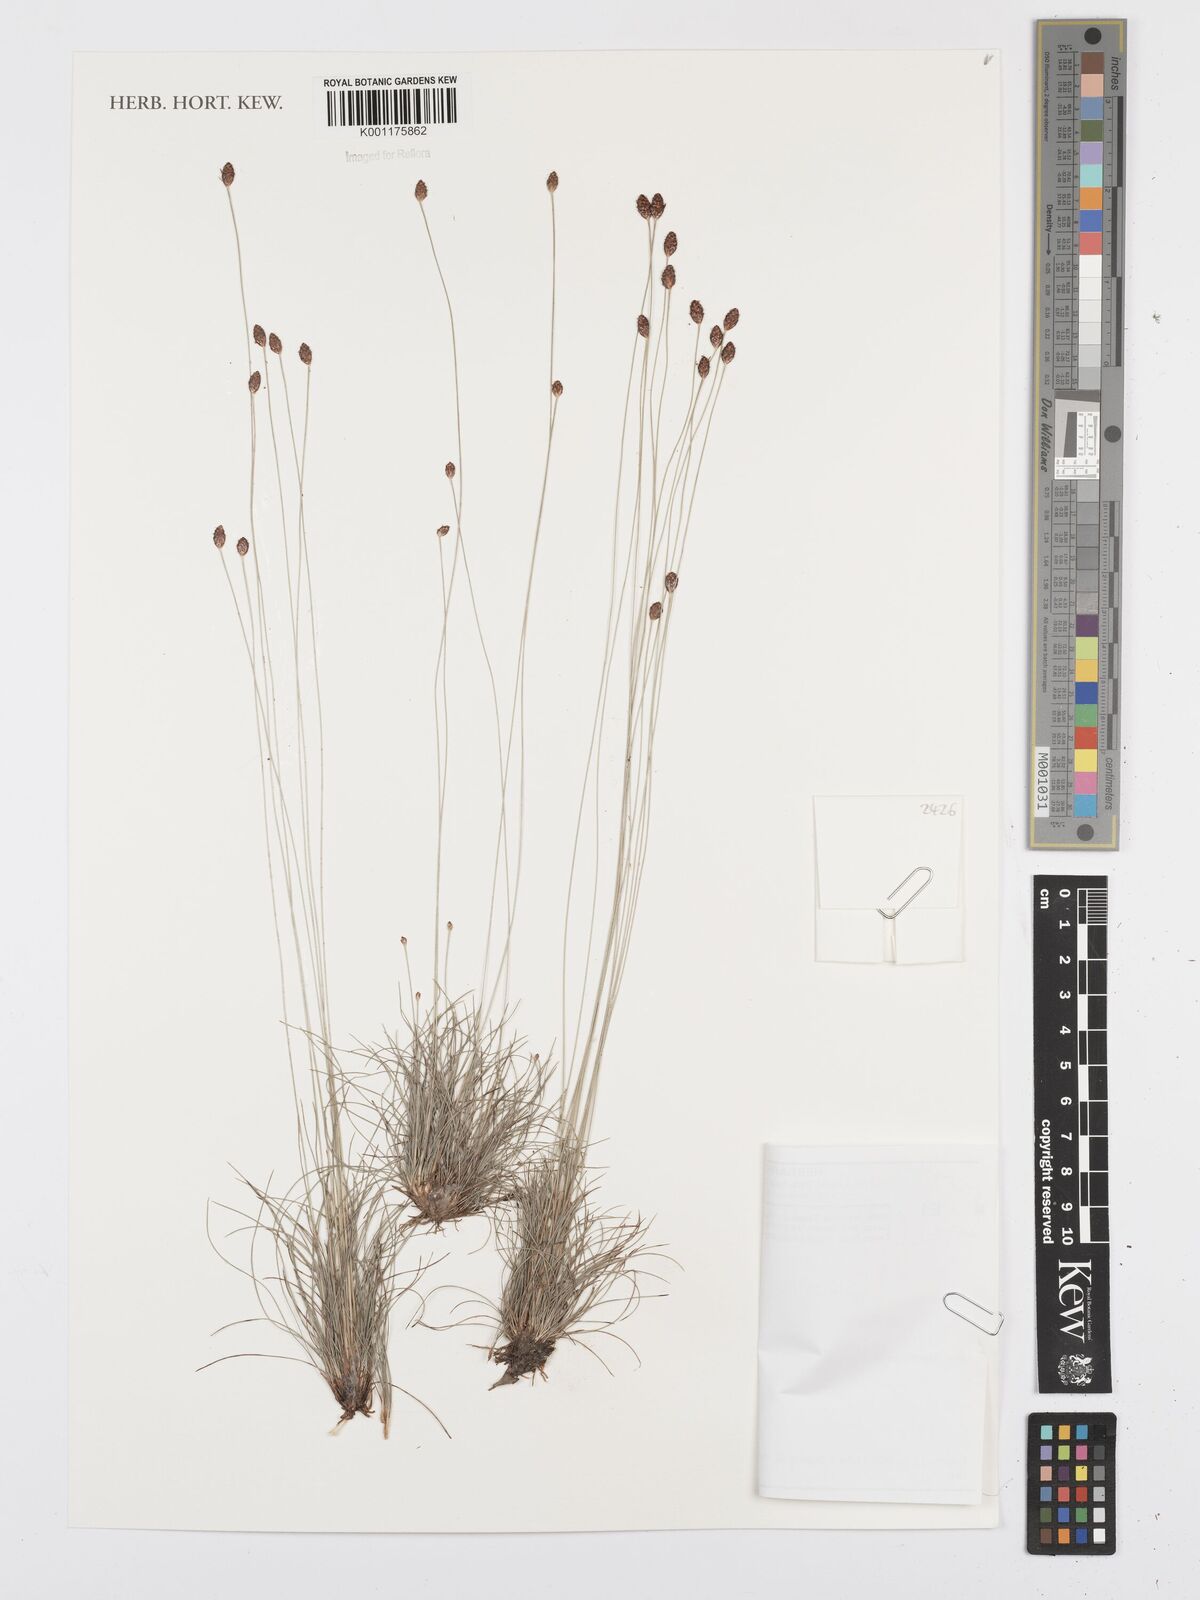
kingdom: Plantae
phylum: Tracheophyta
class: Liliopsida
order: Poales
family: Cyperaceae
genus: Bulbostylis
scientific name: Bulbostylis
